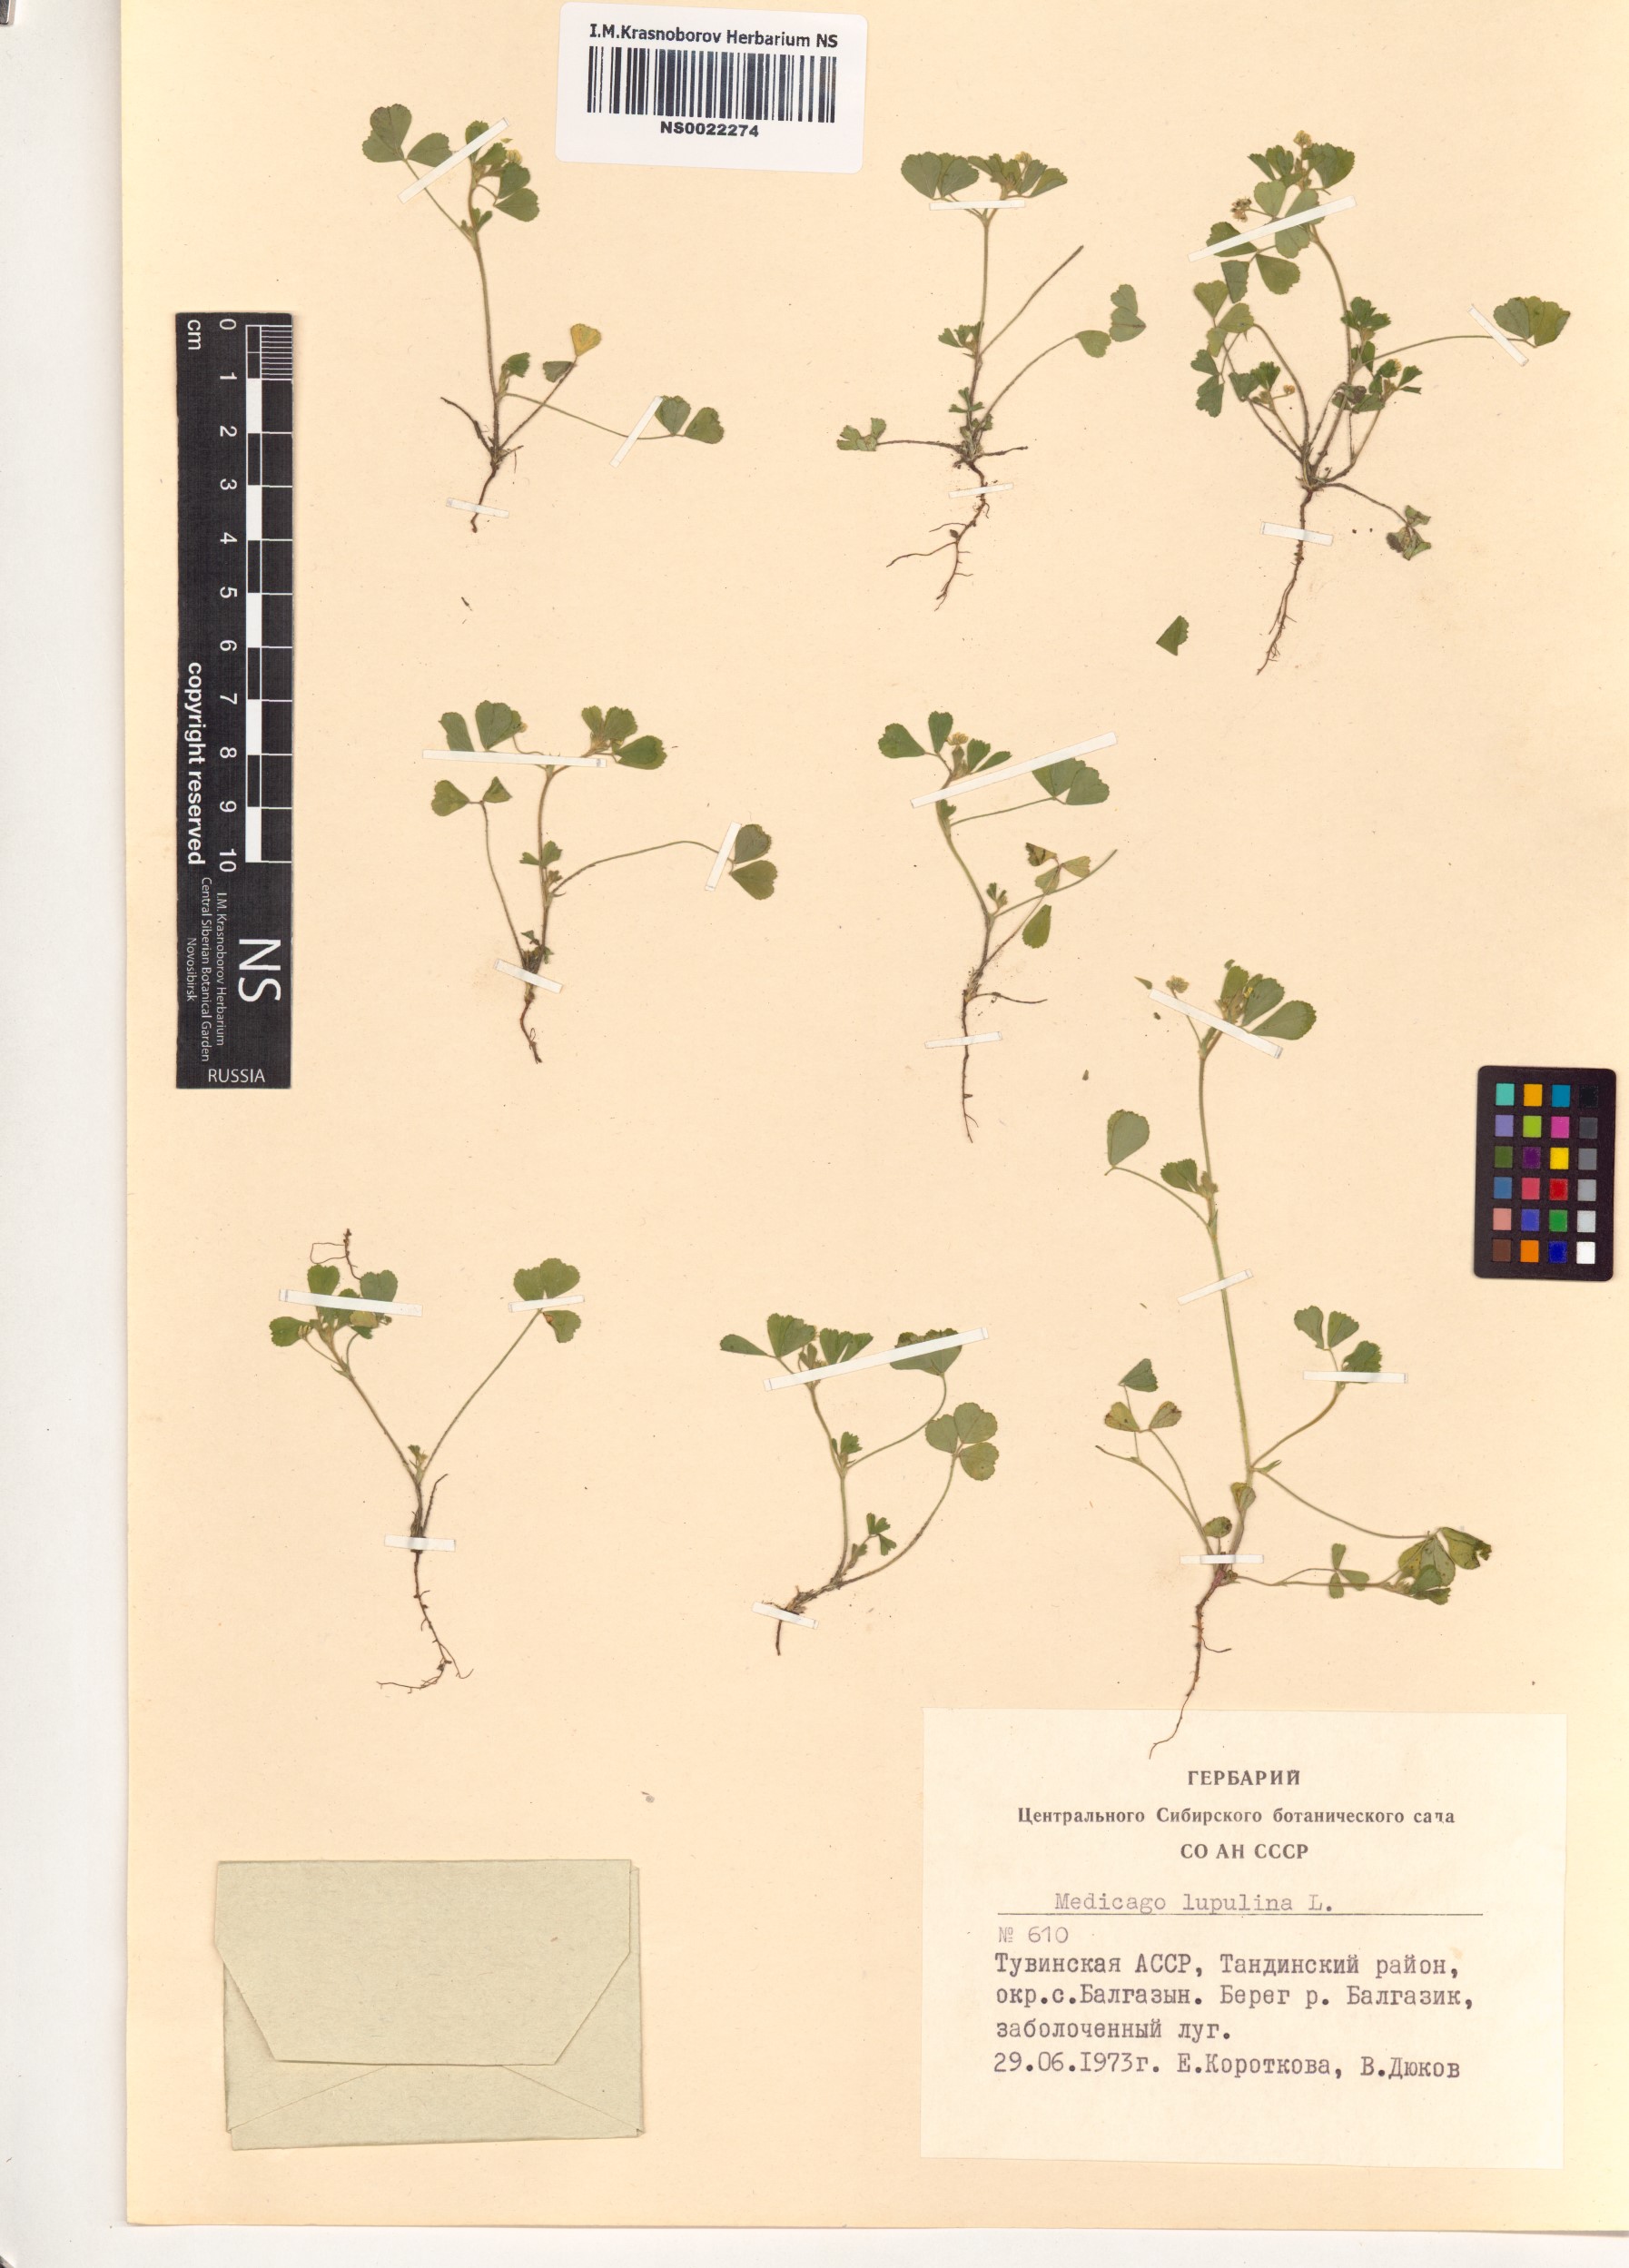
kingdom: Plantae
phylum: Tracheophyta
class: Magnoliopsida
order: Fabales
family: Fabaceae
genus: Medicago
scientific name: Medicago lupulina
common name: Black medick
